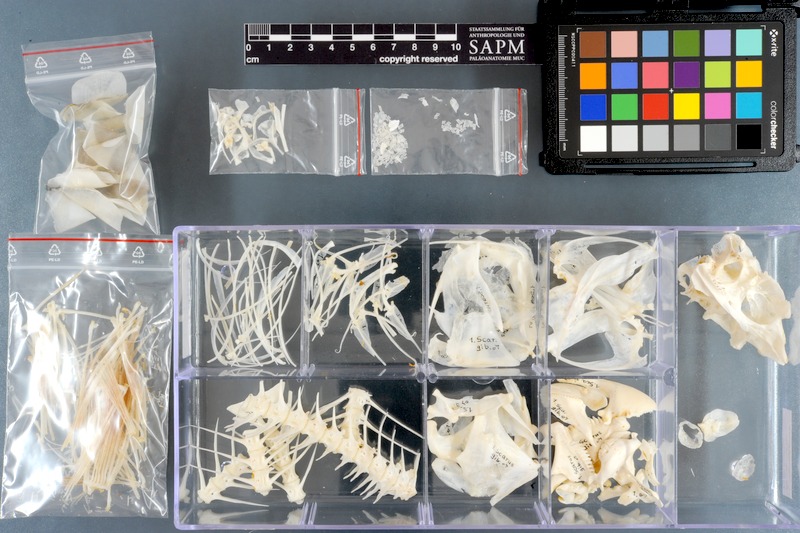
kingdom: Animalia
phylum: Chordata
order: Perciformes
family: Scaridae
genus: Chlorurus
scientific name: Chlorurus gibbus
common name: Heavybeak parrotfish
